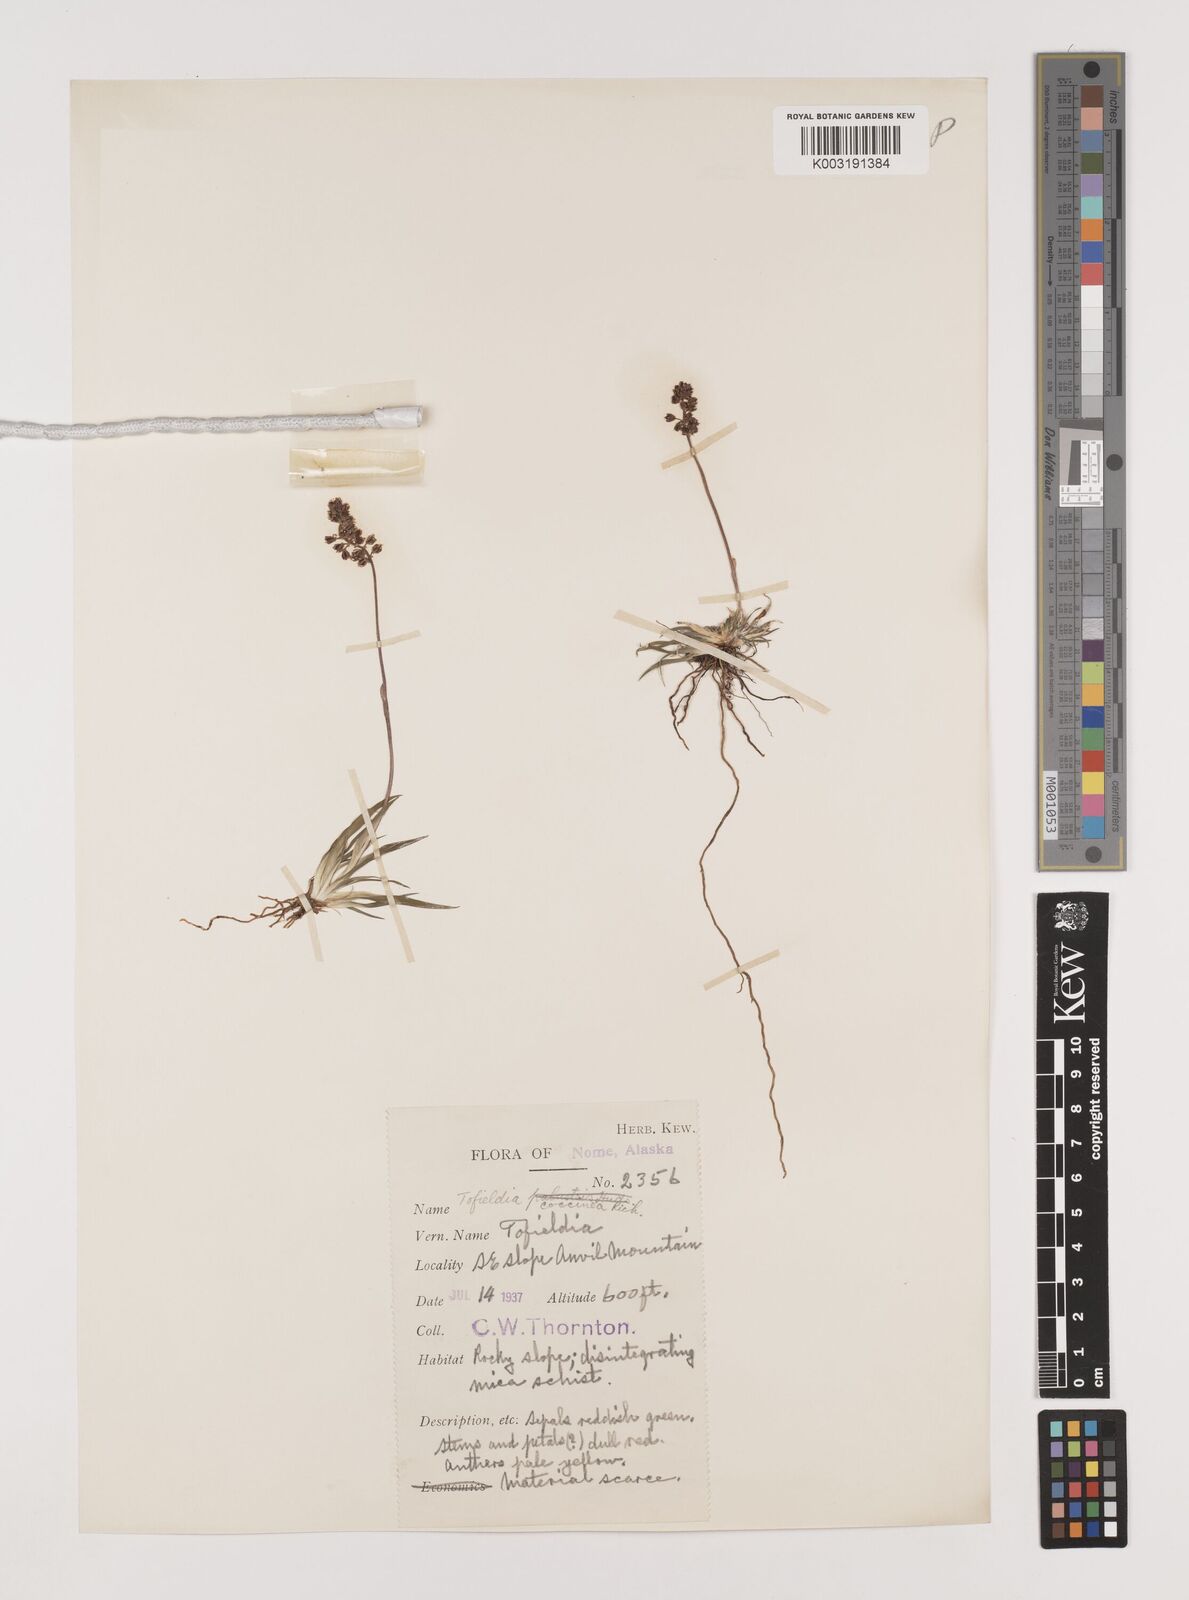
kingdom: Plantae
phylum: Tracheophyta
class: Liliopsida
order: Alismatales
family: Tofieldiaceae
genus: Tofieldia
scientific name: Tofieldia coccinea
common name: Northern false asphodel
